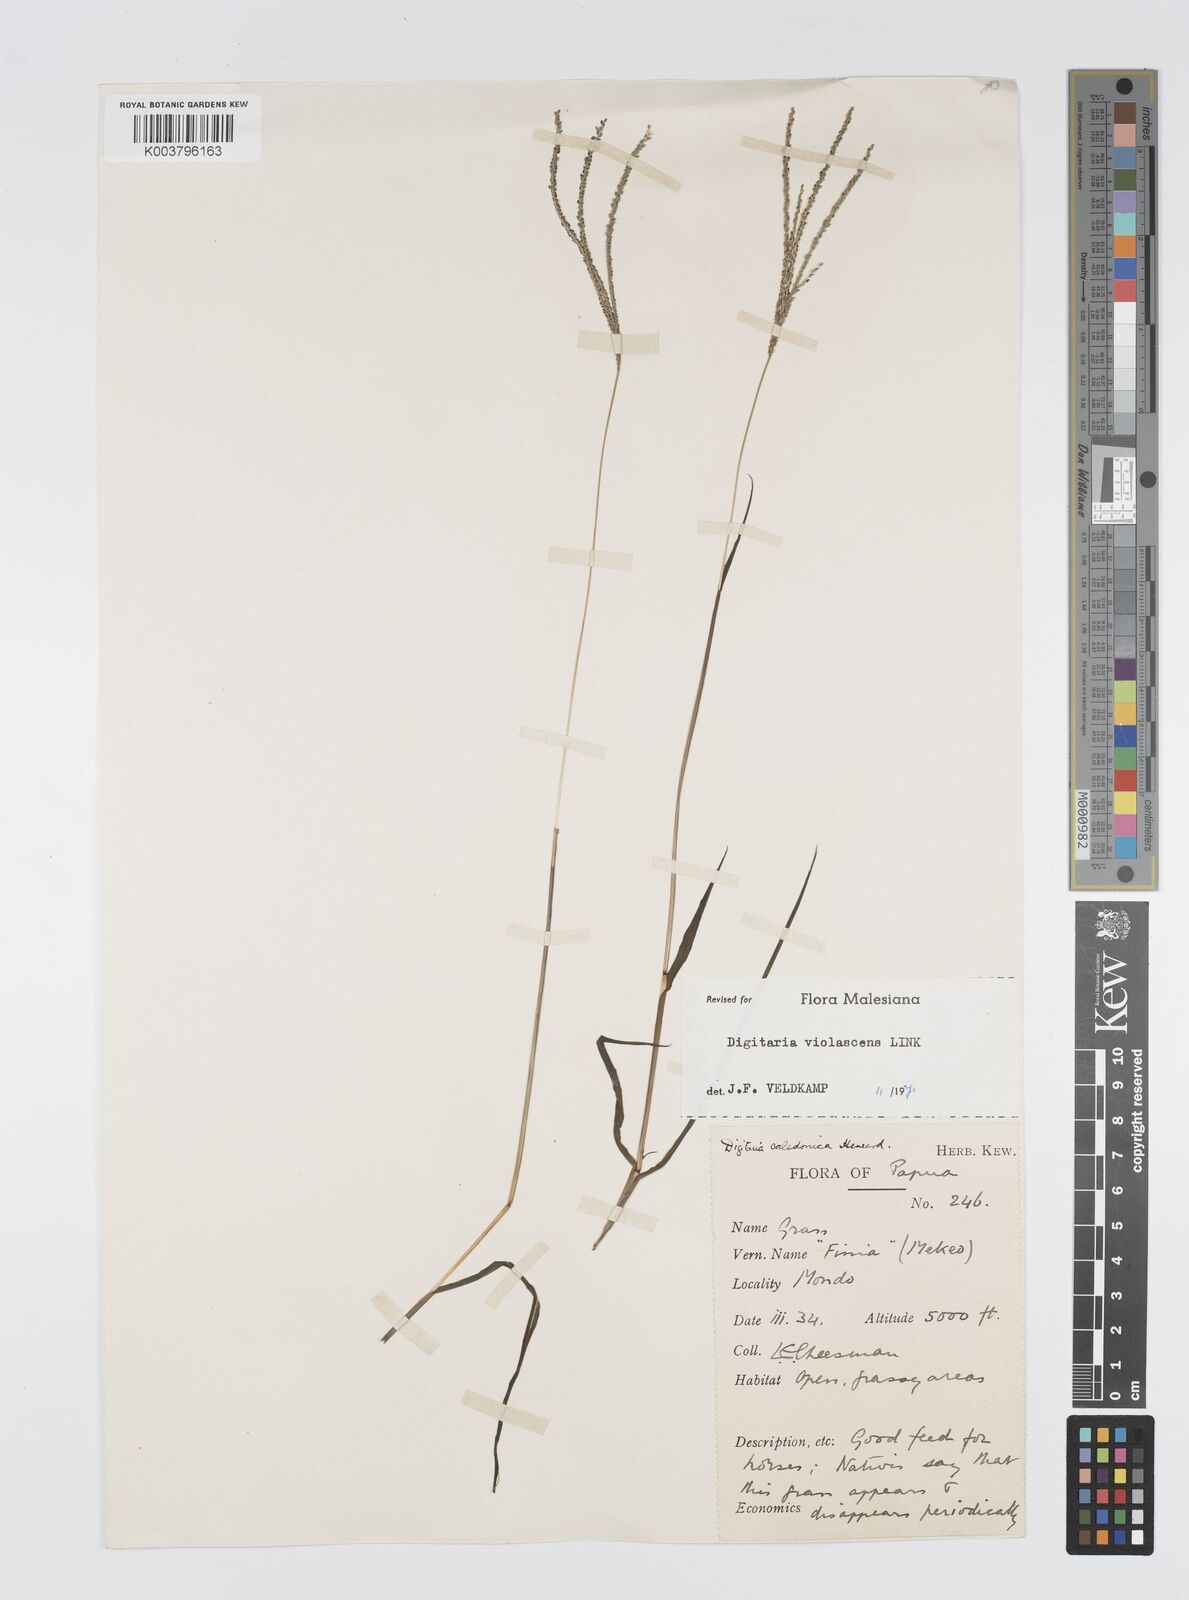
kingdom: Plantae
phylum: Tracheophyta
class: Liliopsida
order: Poales
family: Poaceae
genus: Digitaria
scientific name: Digitaria violascens
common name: Violet crabgrass
